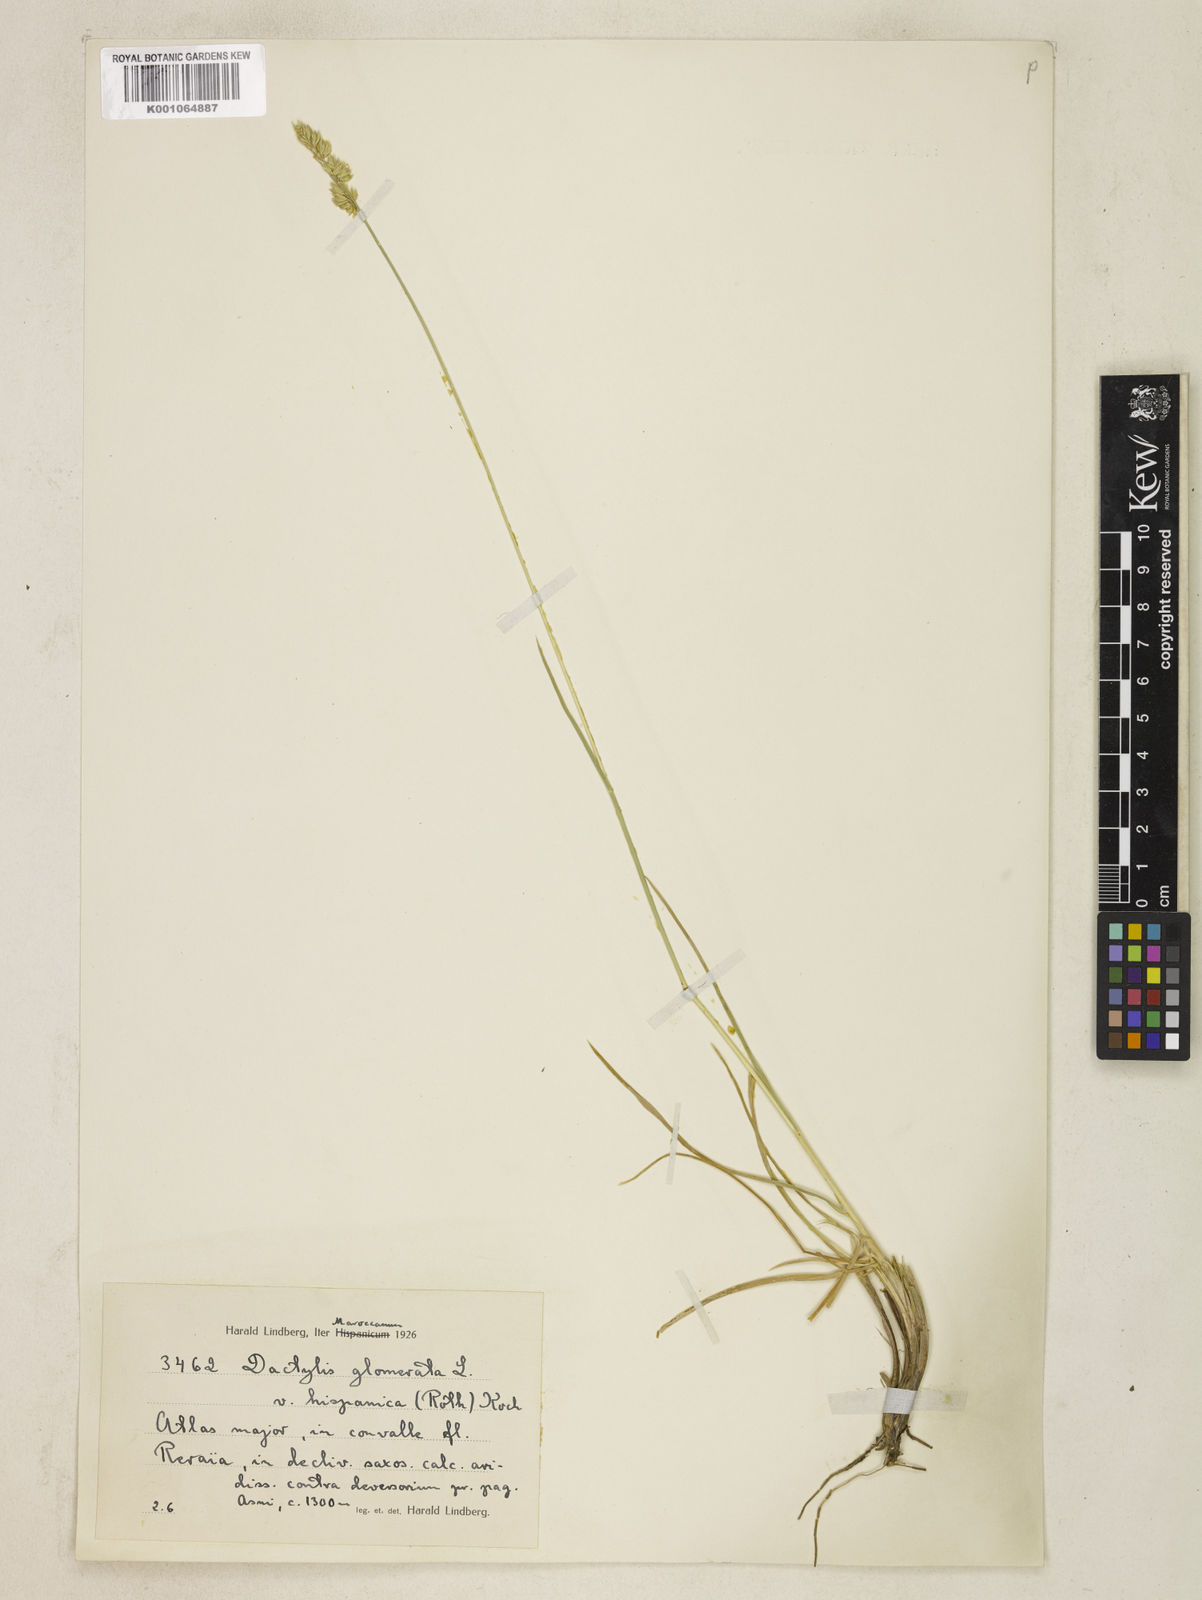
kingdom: Plantae
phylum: Tracheophyta
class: Liliopsida
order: Poales
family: Poaceae
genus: Dactylis
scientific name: Dactylis glomerata
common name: Orchardgrass
